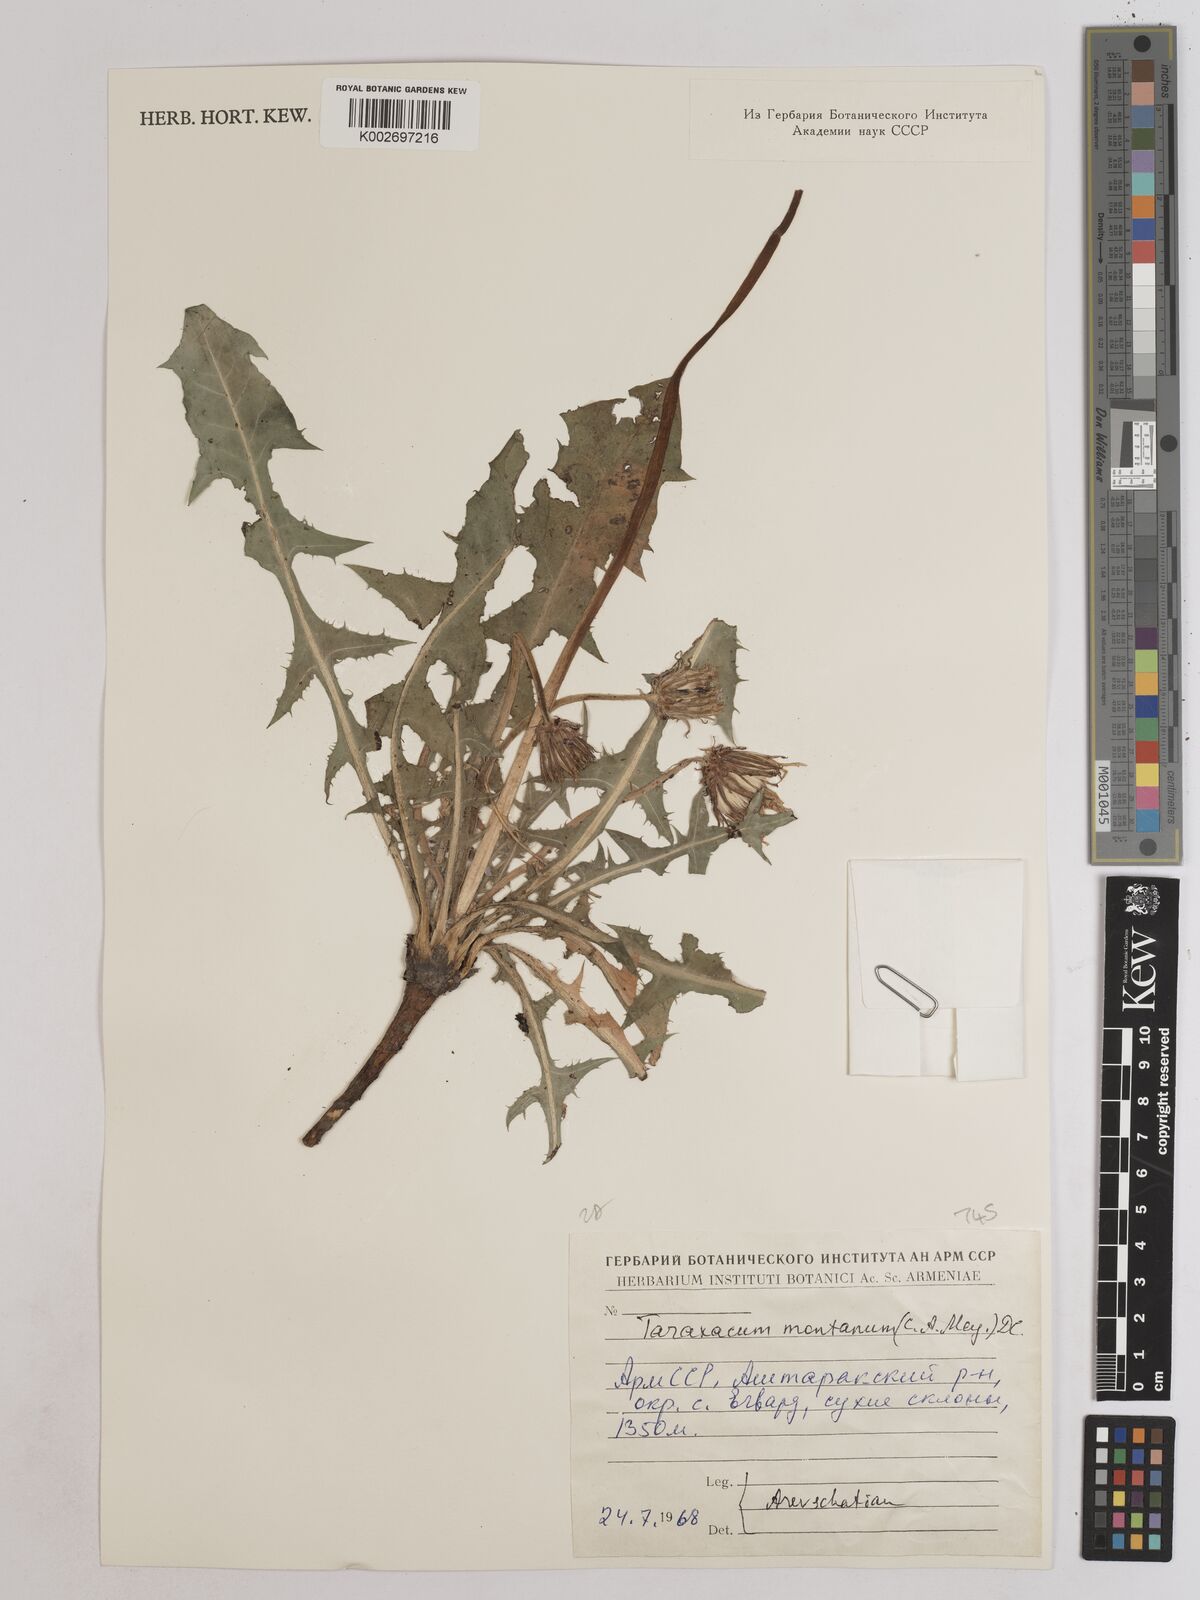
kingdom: Plantae
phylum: Tracheophyta
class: Magnoliopsida
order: Asterales
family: Asteraceae
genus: Taraxacum
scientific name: Taraxacum sonchoides
